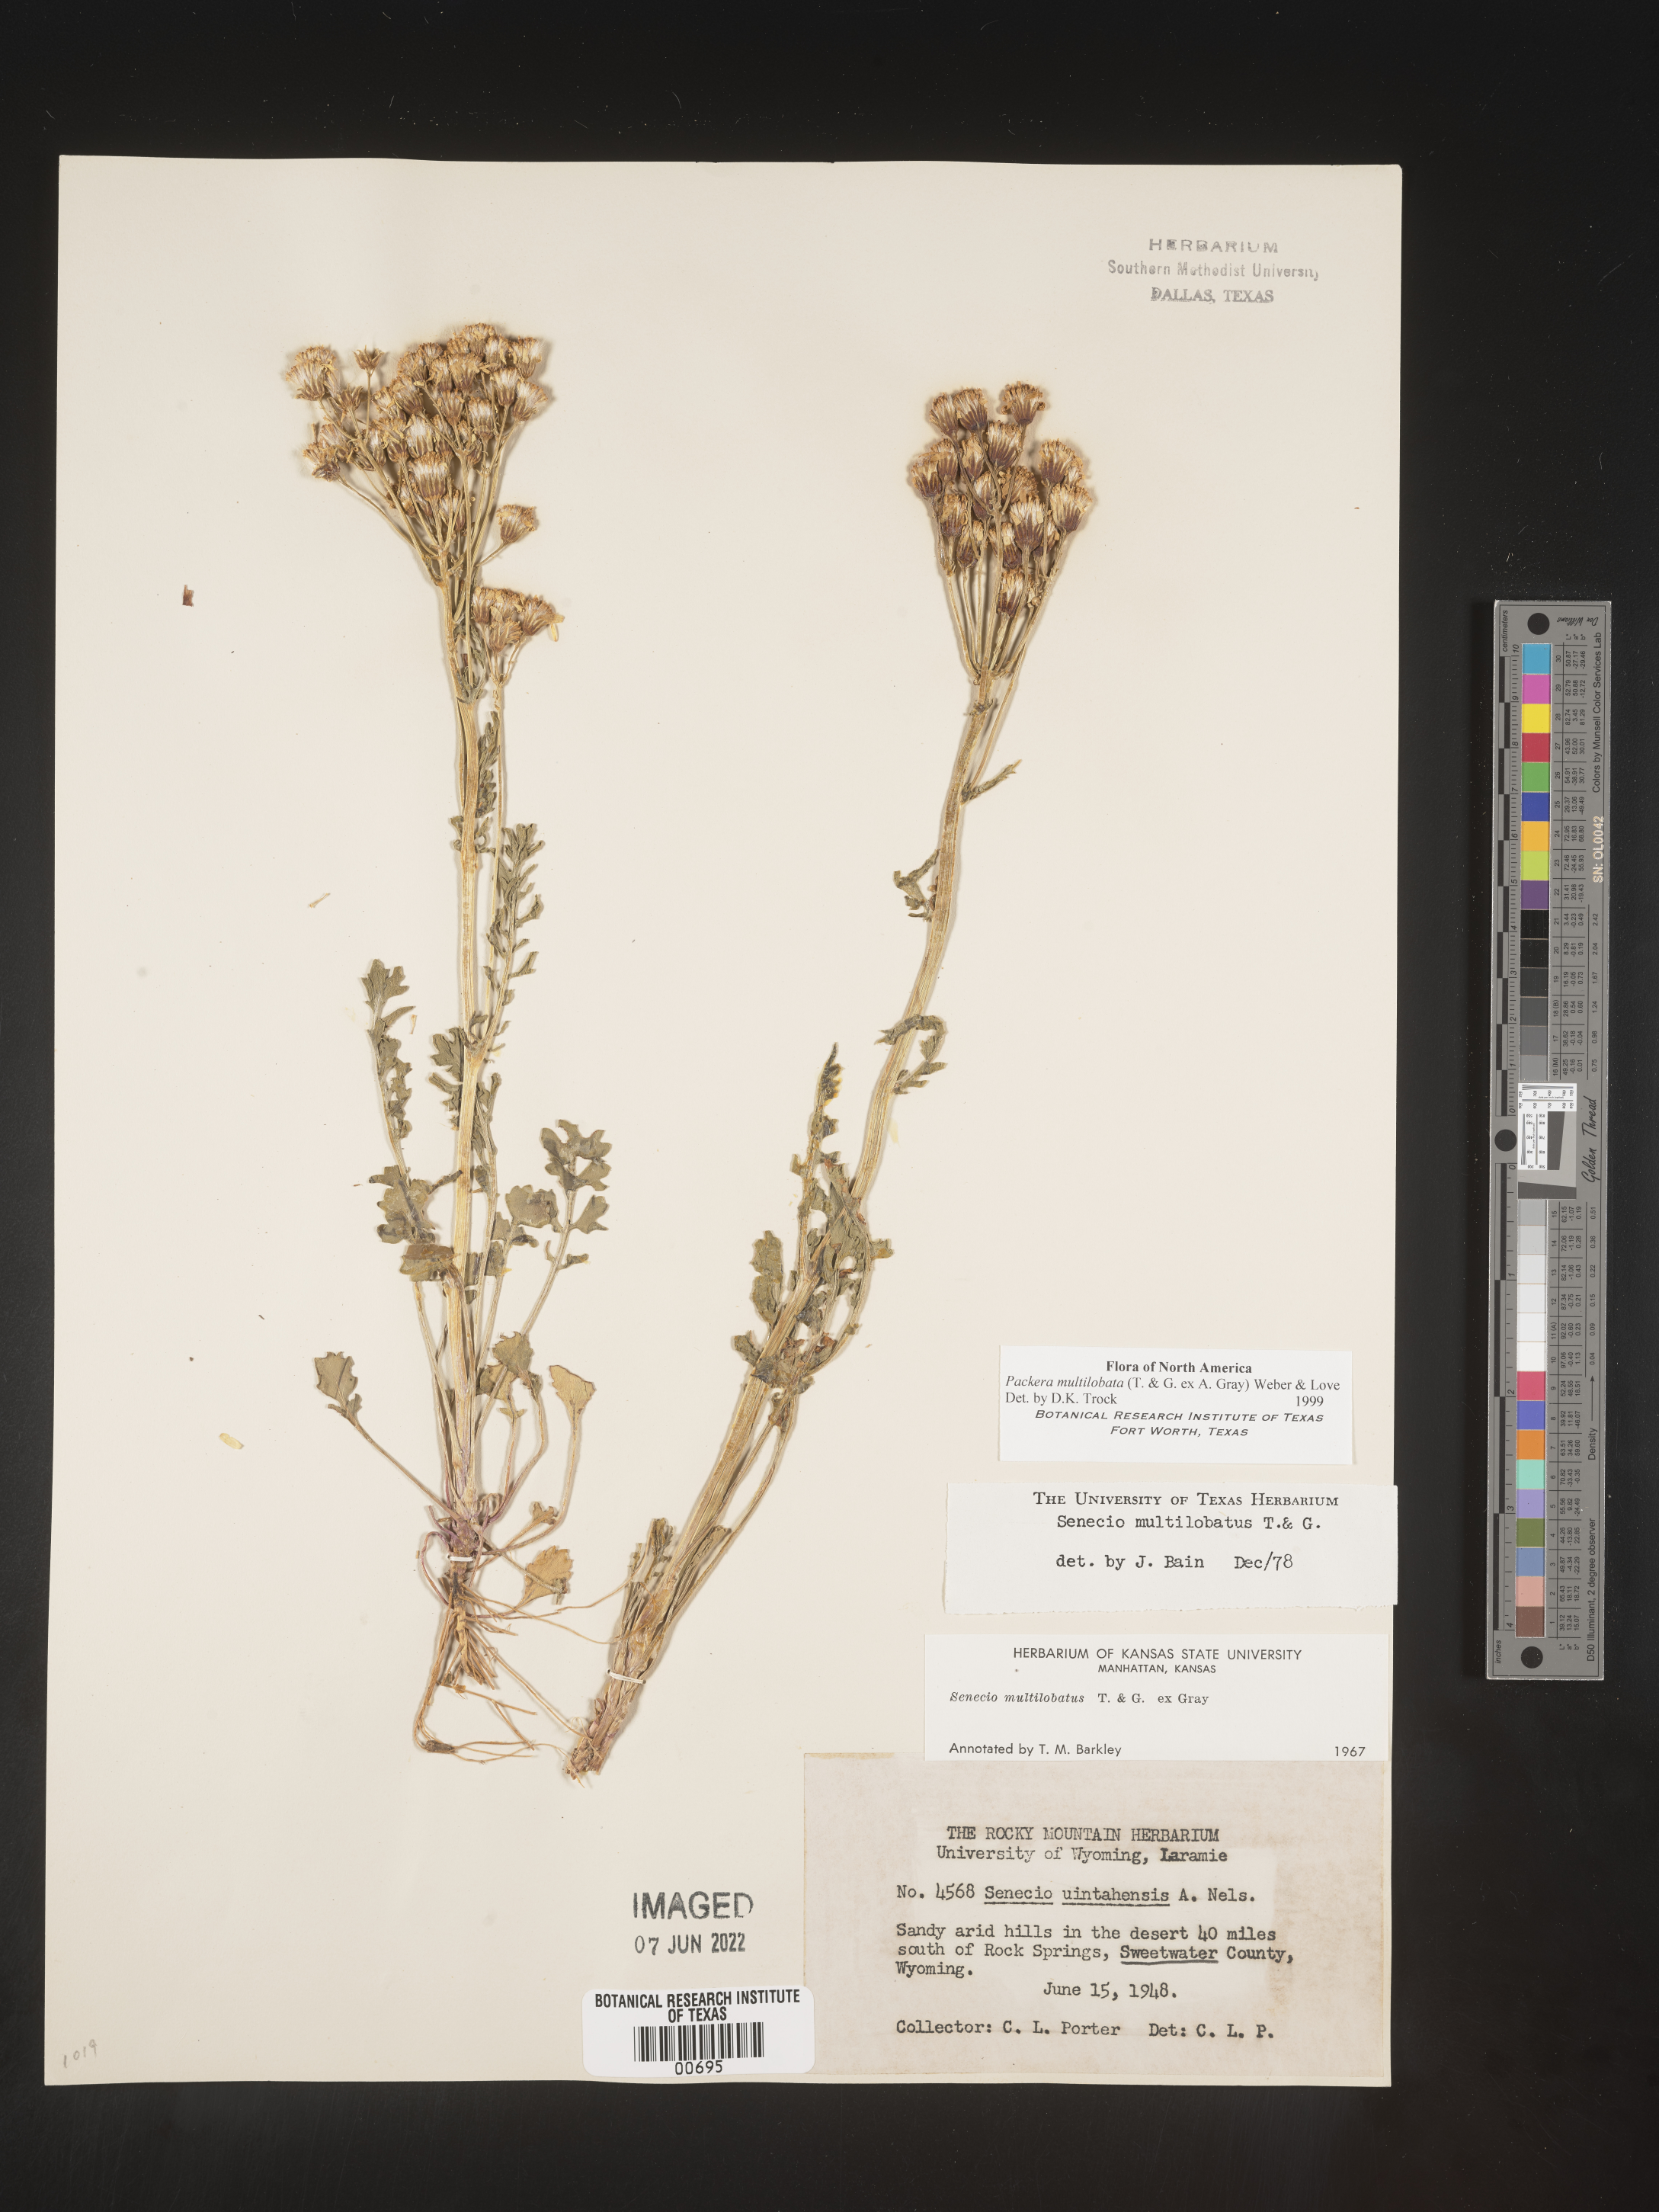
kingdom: Plantae
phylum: Tracheophyta
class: Magnoliopsida
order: Asterales
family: Asteraceae
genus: Packera
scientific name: Packera multilobata
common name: Lobe-leaf groundsel
